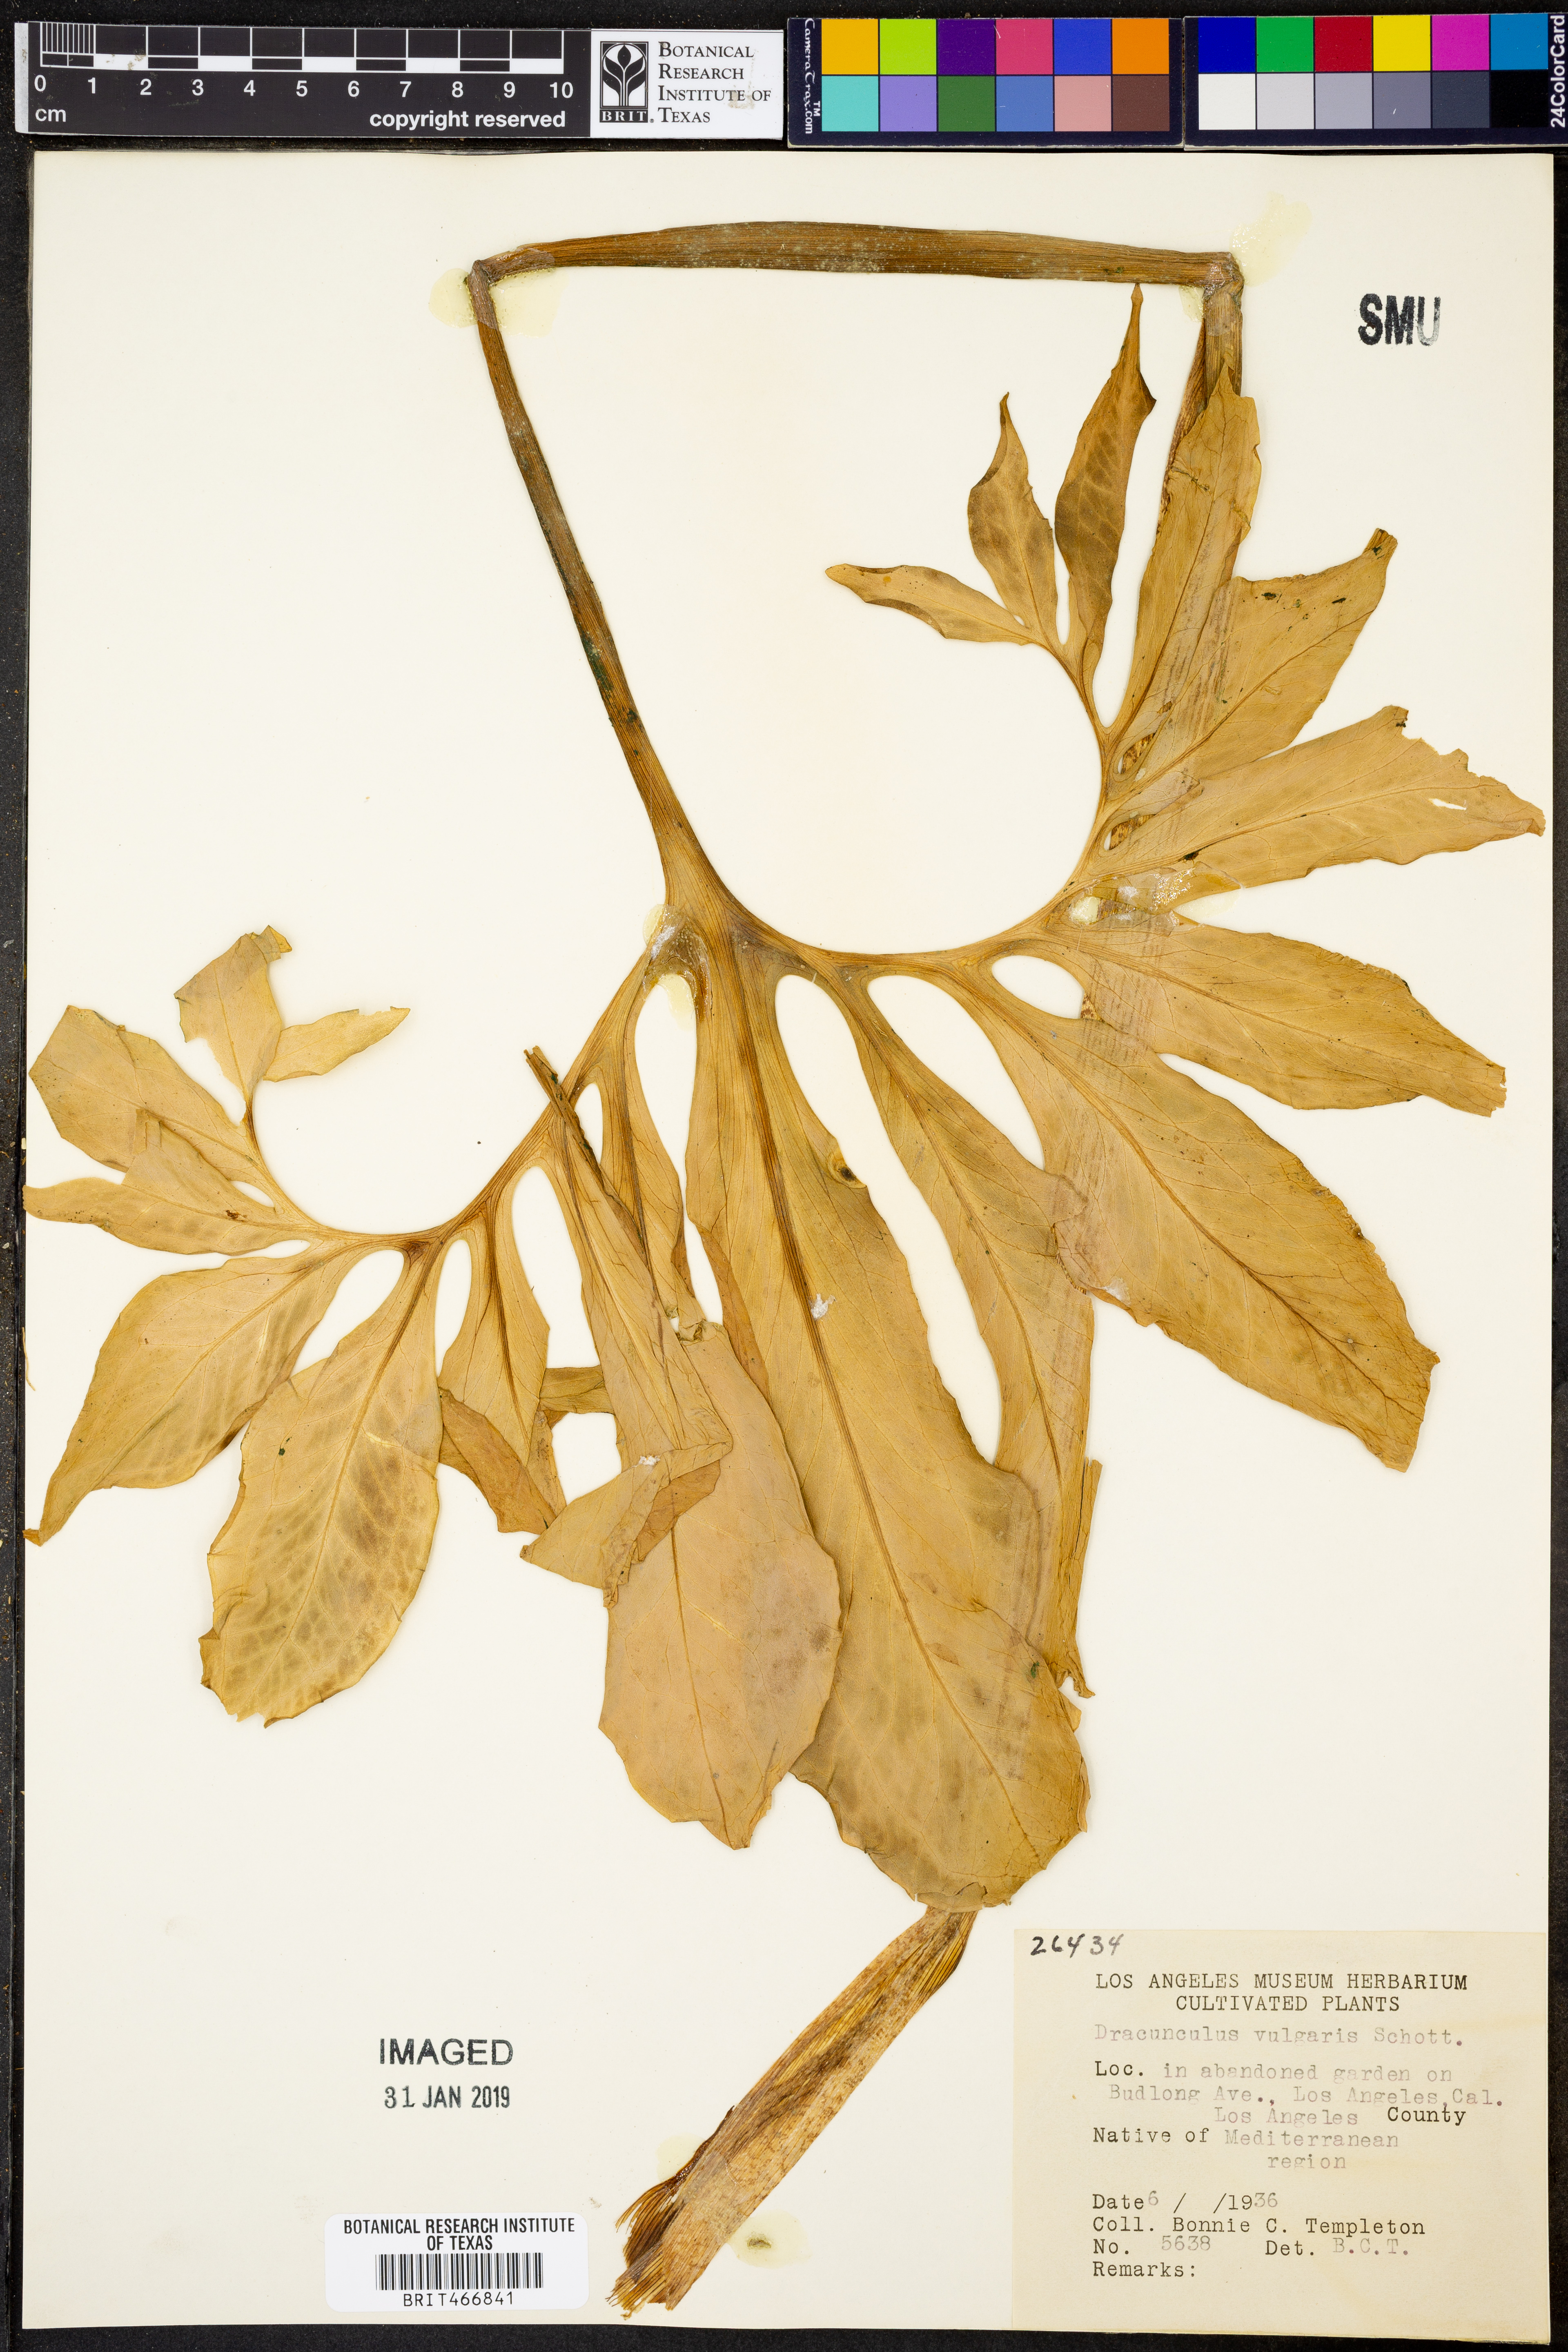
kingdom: Plantae
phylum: Tracheophyta
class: Liliopsida
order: Alismatales
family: Araceae
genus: Dracunculus
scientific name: Dracunculus vulgaris
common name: Dragon arum
